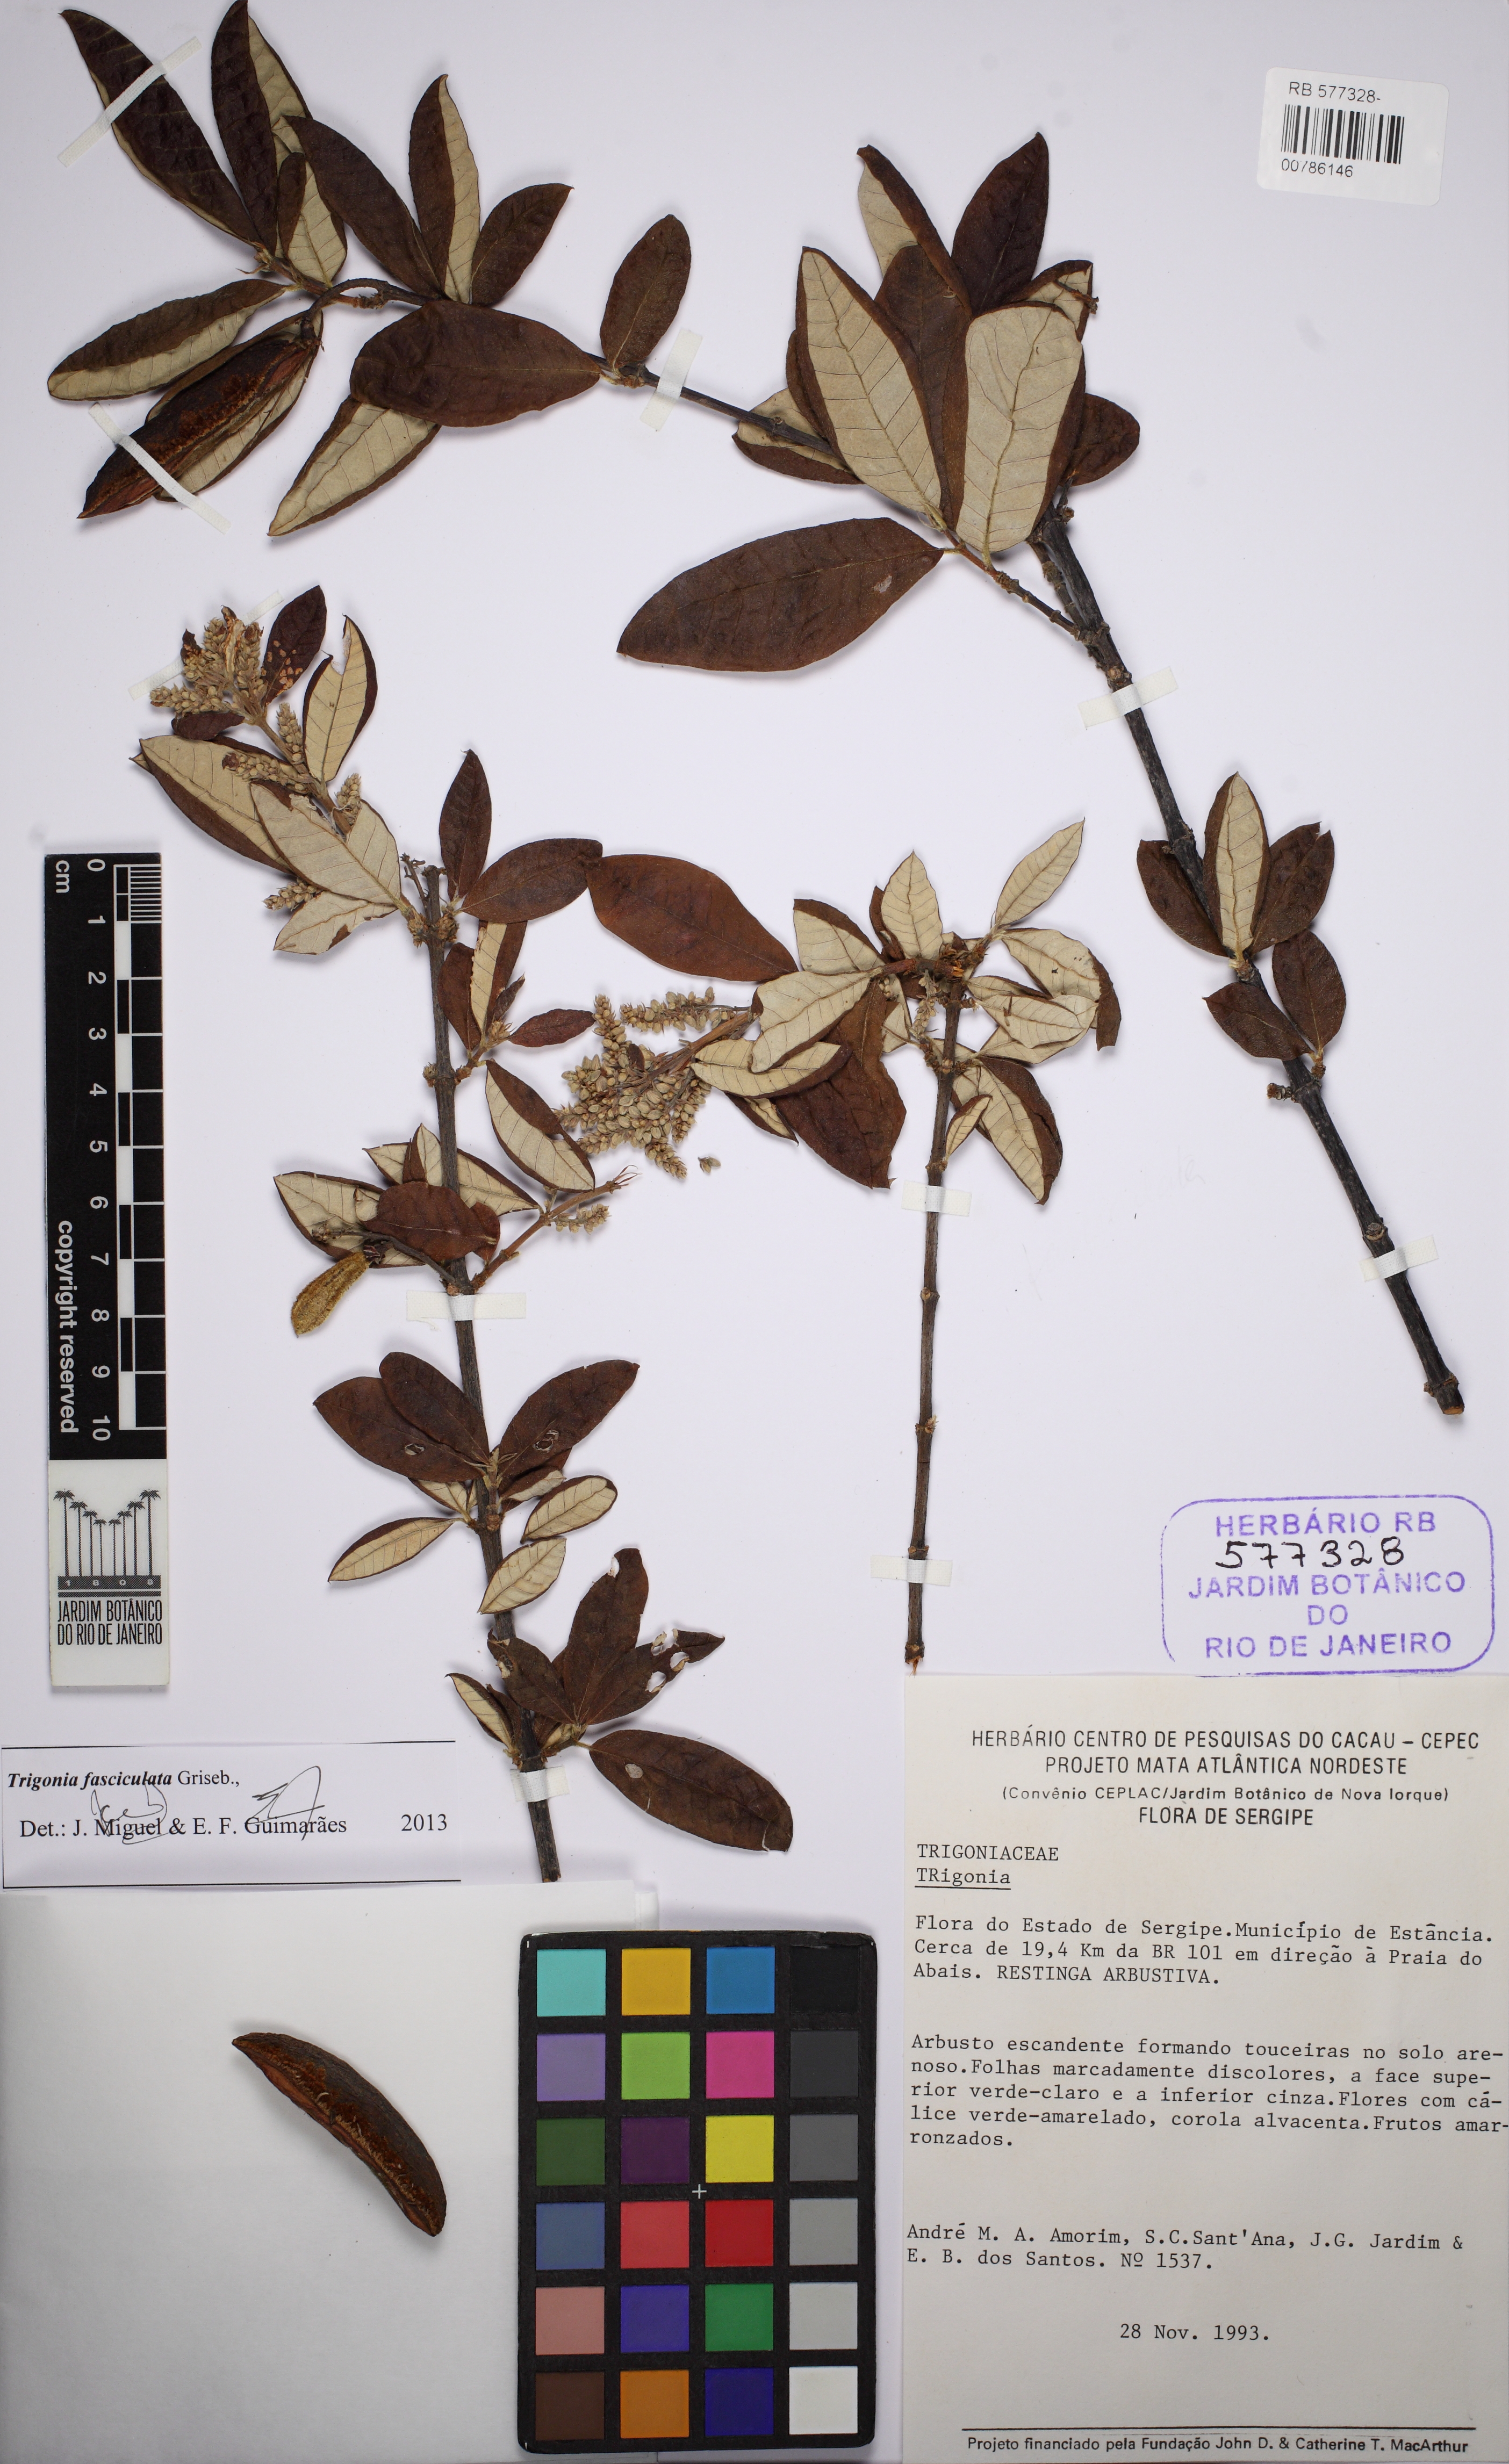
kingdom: Plantae
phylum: Tracheophyta
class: Magnoliopsida
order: Malpighiales
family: Trigoniaceae
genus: Trigonia
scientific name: Trigonia nivea
